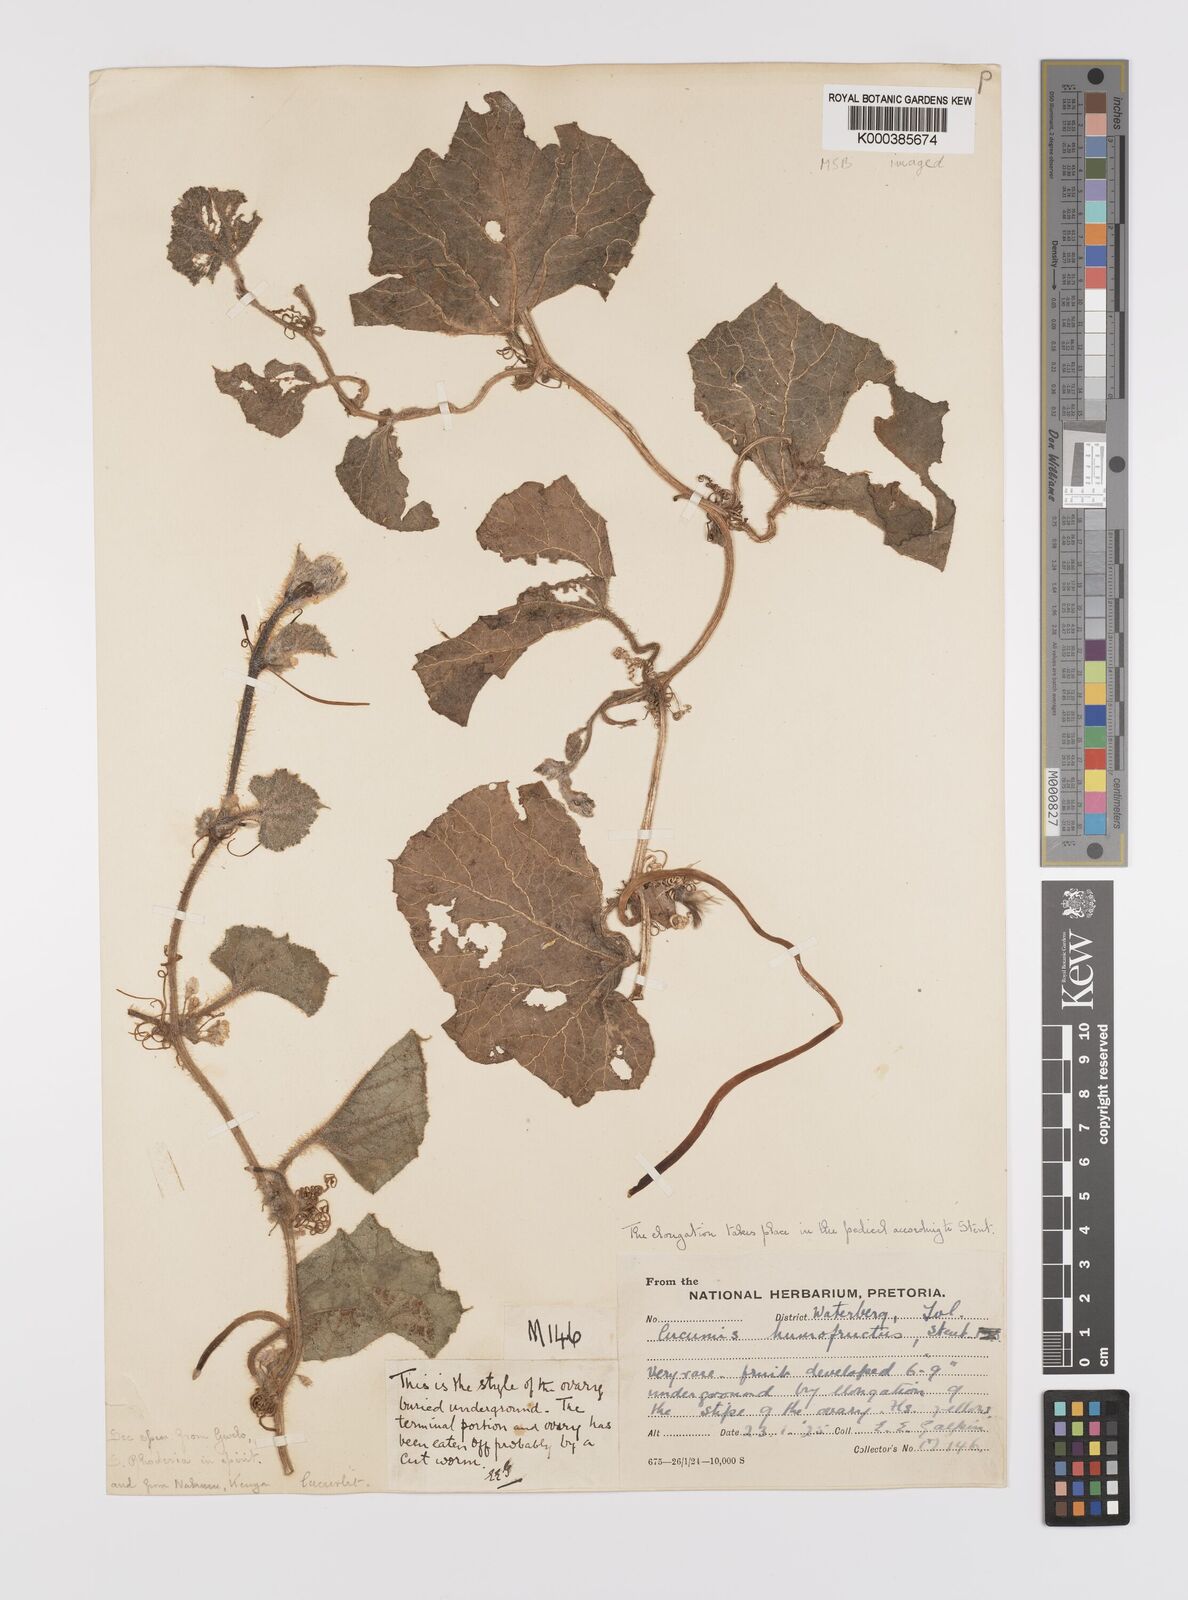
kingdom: Plantae
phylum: Tracheophyta
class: Magnoliopsida
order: Cucurbitales
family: Cucurbitaceae
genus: Cucumis
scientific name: Cucumis
